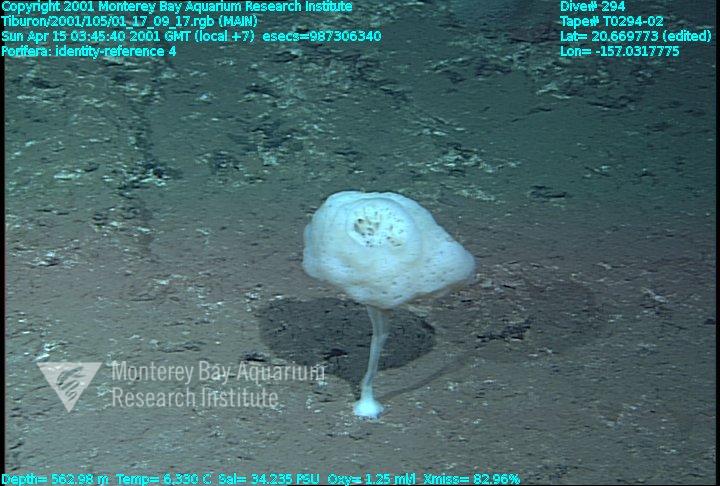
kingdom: Animalia
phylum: Porifera
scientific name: Porifera
